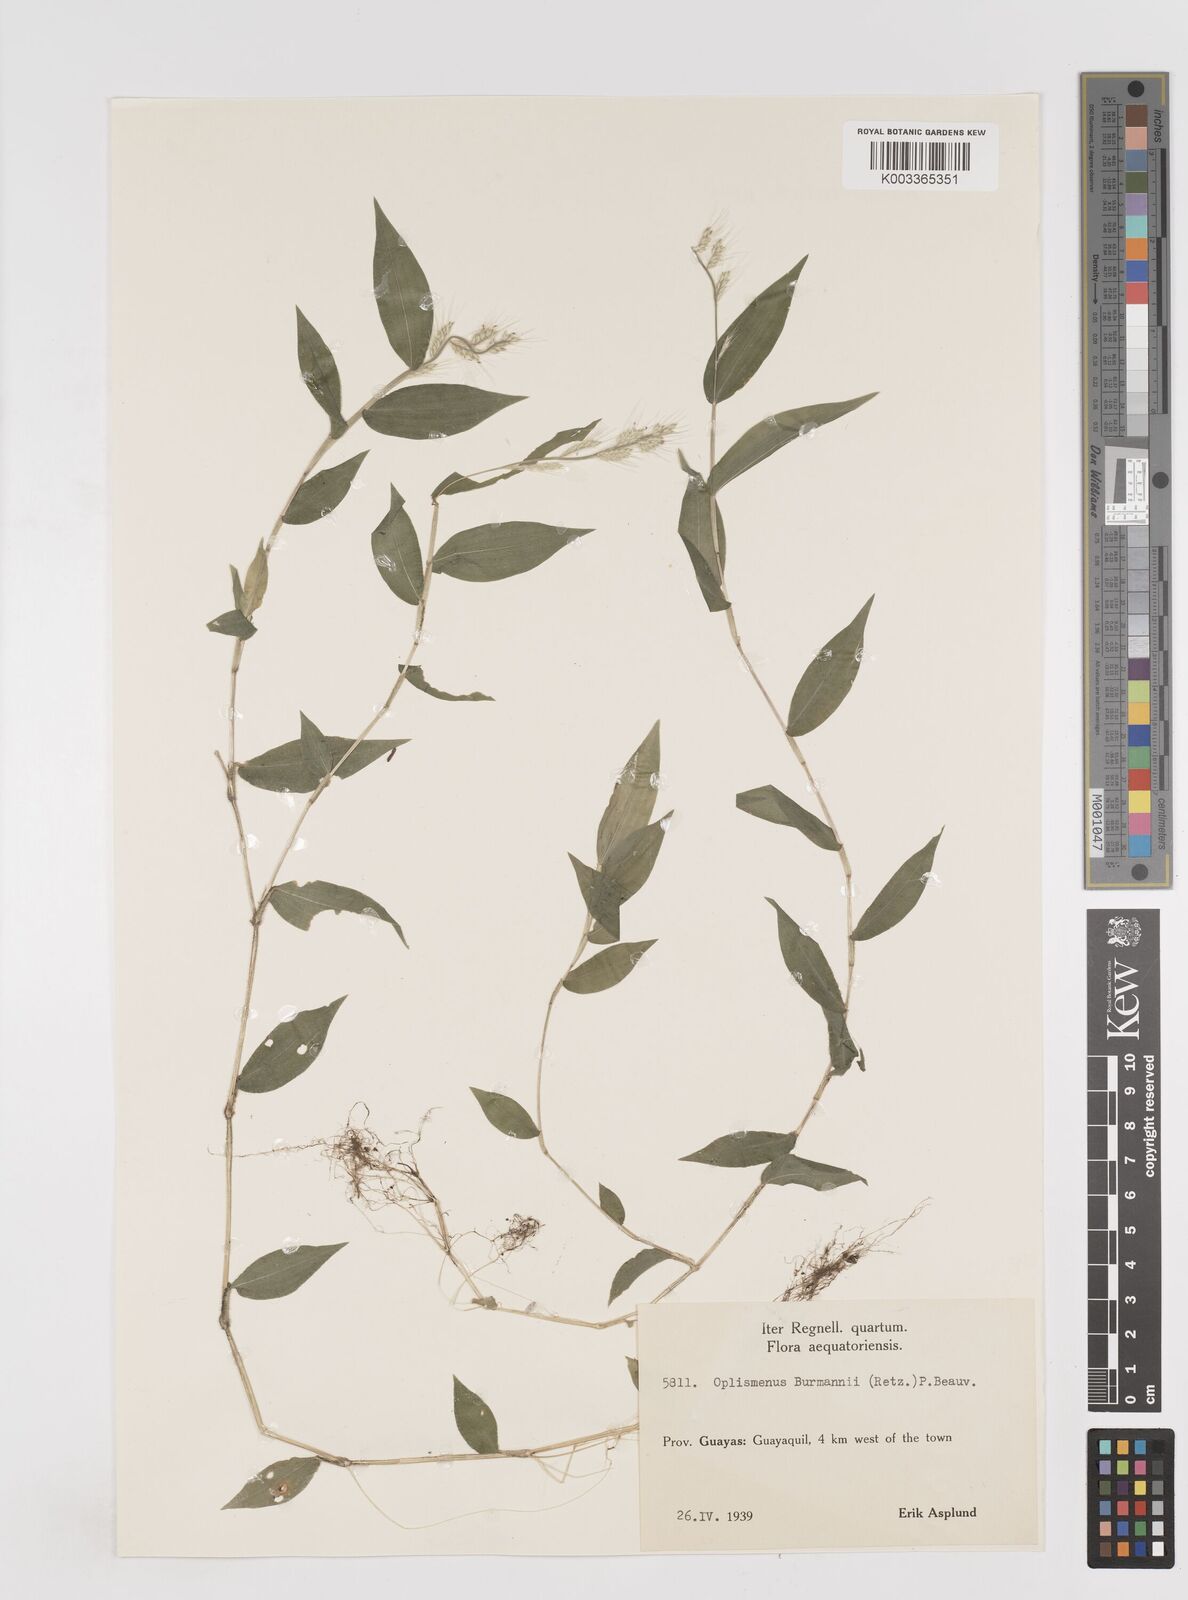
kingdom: Plantae
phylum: Tracheophyta
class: Liliopsida
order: Poales
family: Poaceae
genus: Oplismenus
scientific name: Oplismenus burmanni
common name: Burmann's basketgrass
